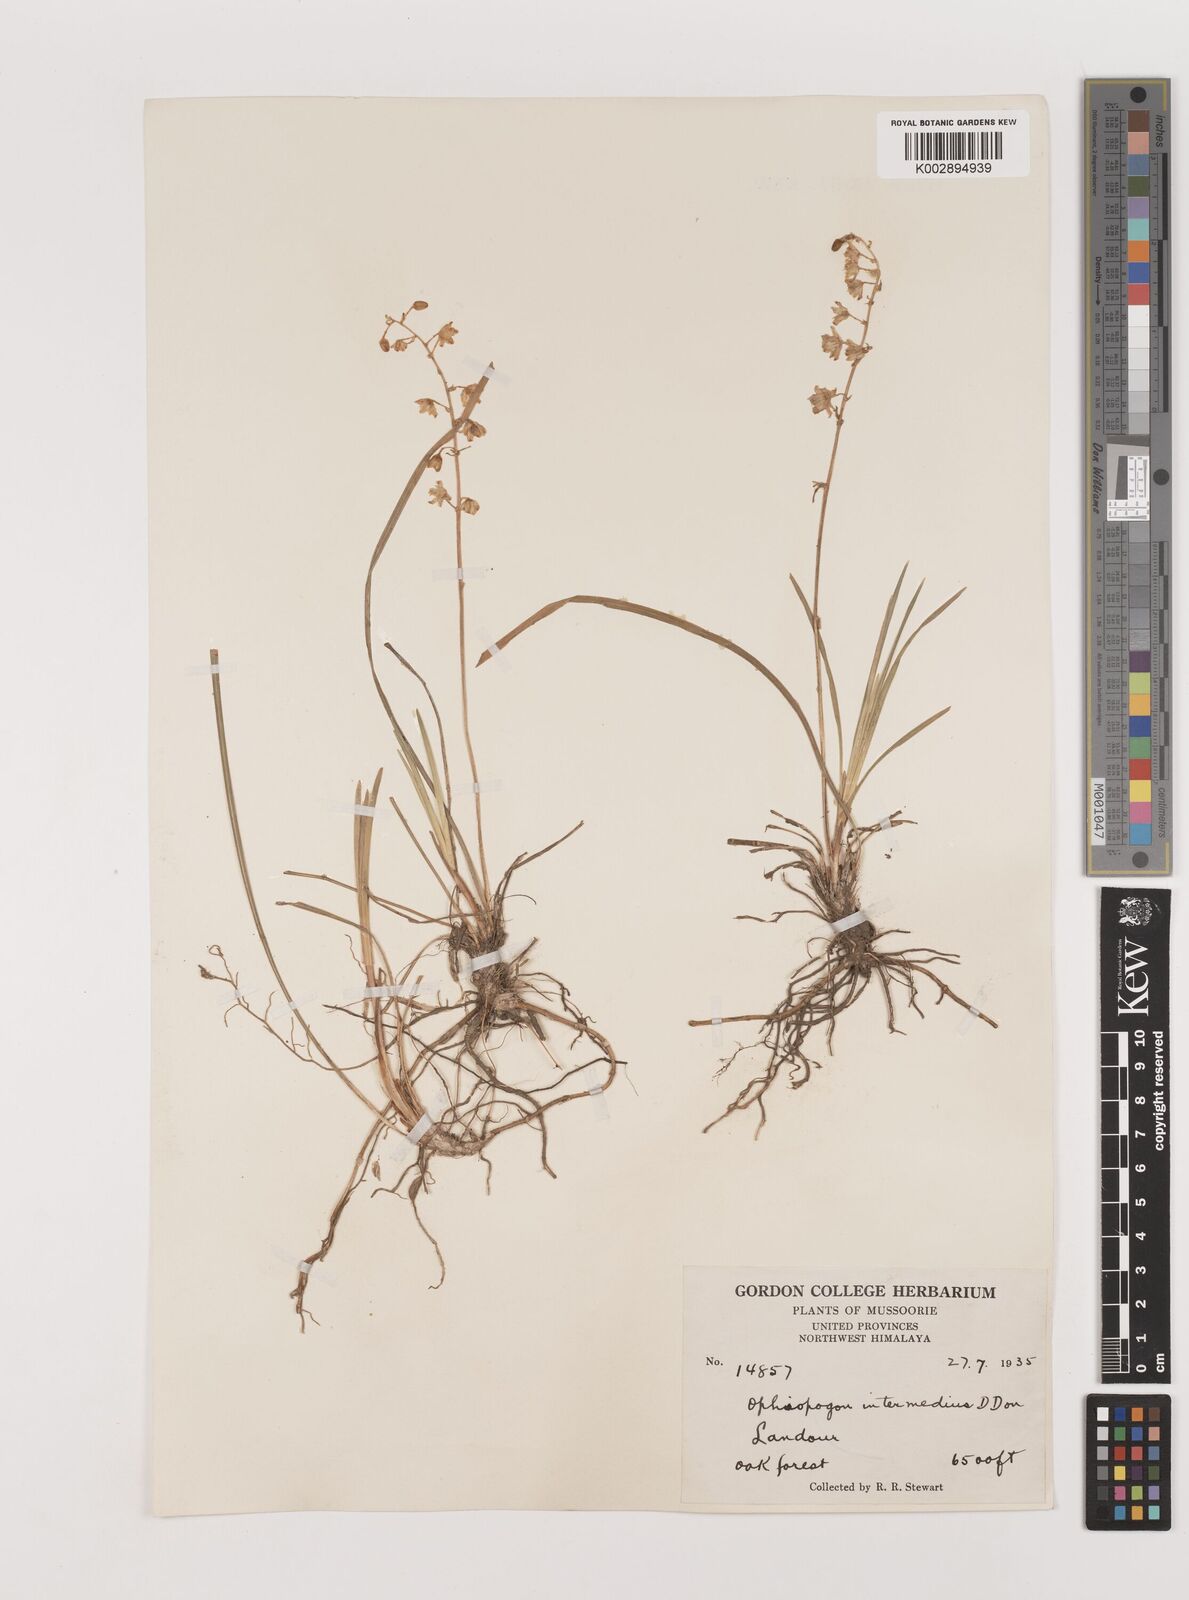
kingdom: Plantae
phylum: Tracheophyta
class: Liliopsida
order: Asparagales
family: Asparagaceae
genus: Ophiopogon
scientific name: Ophiopogon intermedius
